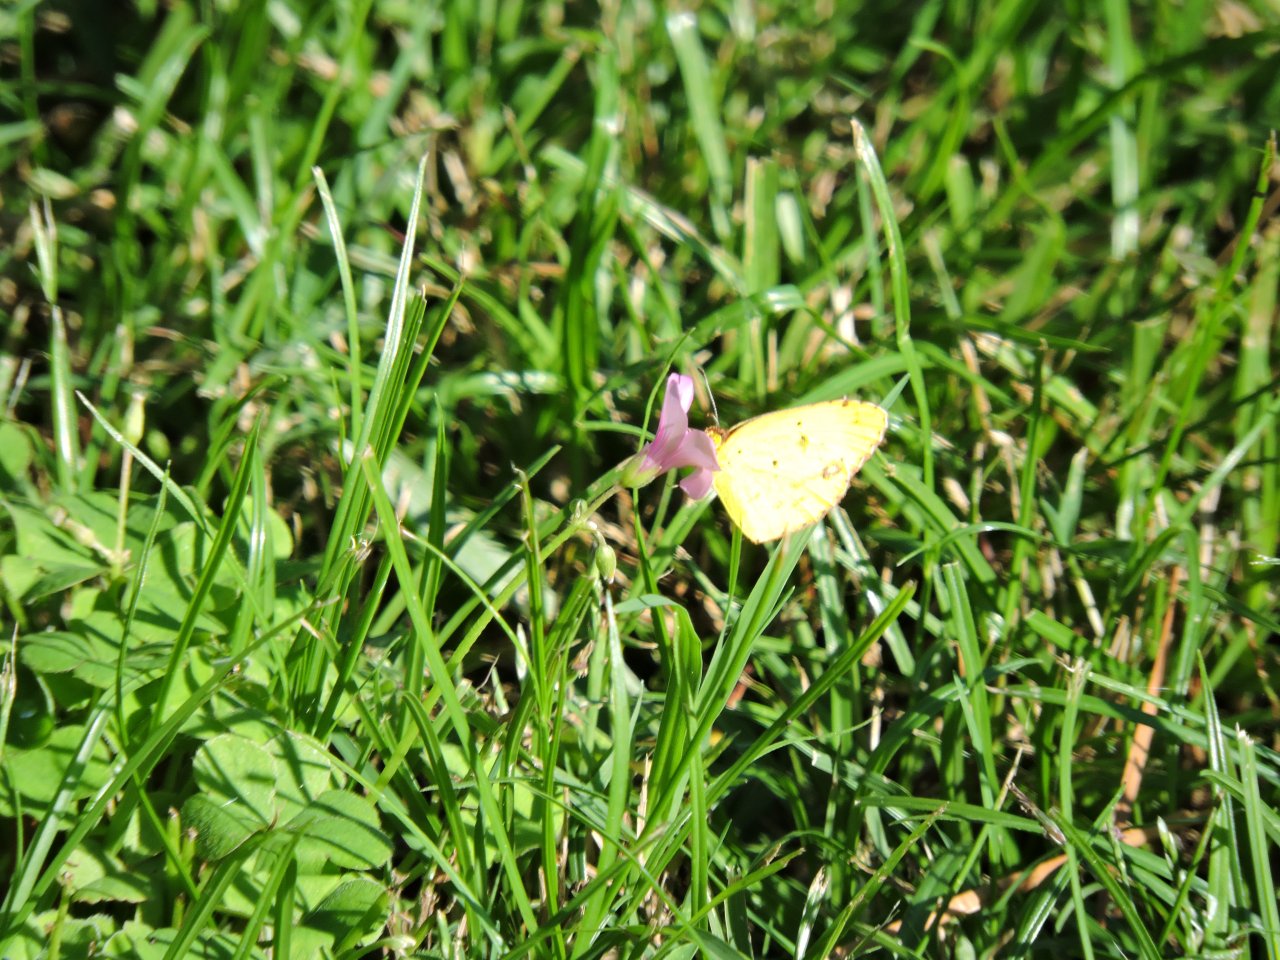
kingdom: Animalia
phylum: Arthropoda
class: Insecta
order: Lepidoptera
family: Pieridae
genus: Pyrisitia
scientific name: Pyrisitia lisa
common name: Little Yellow
